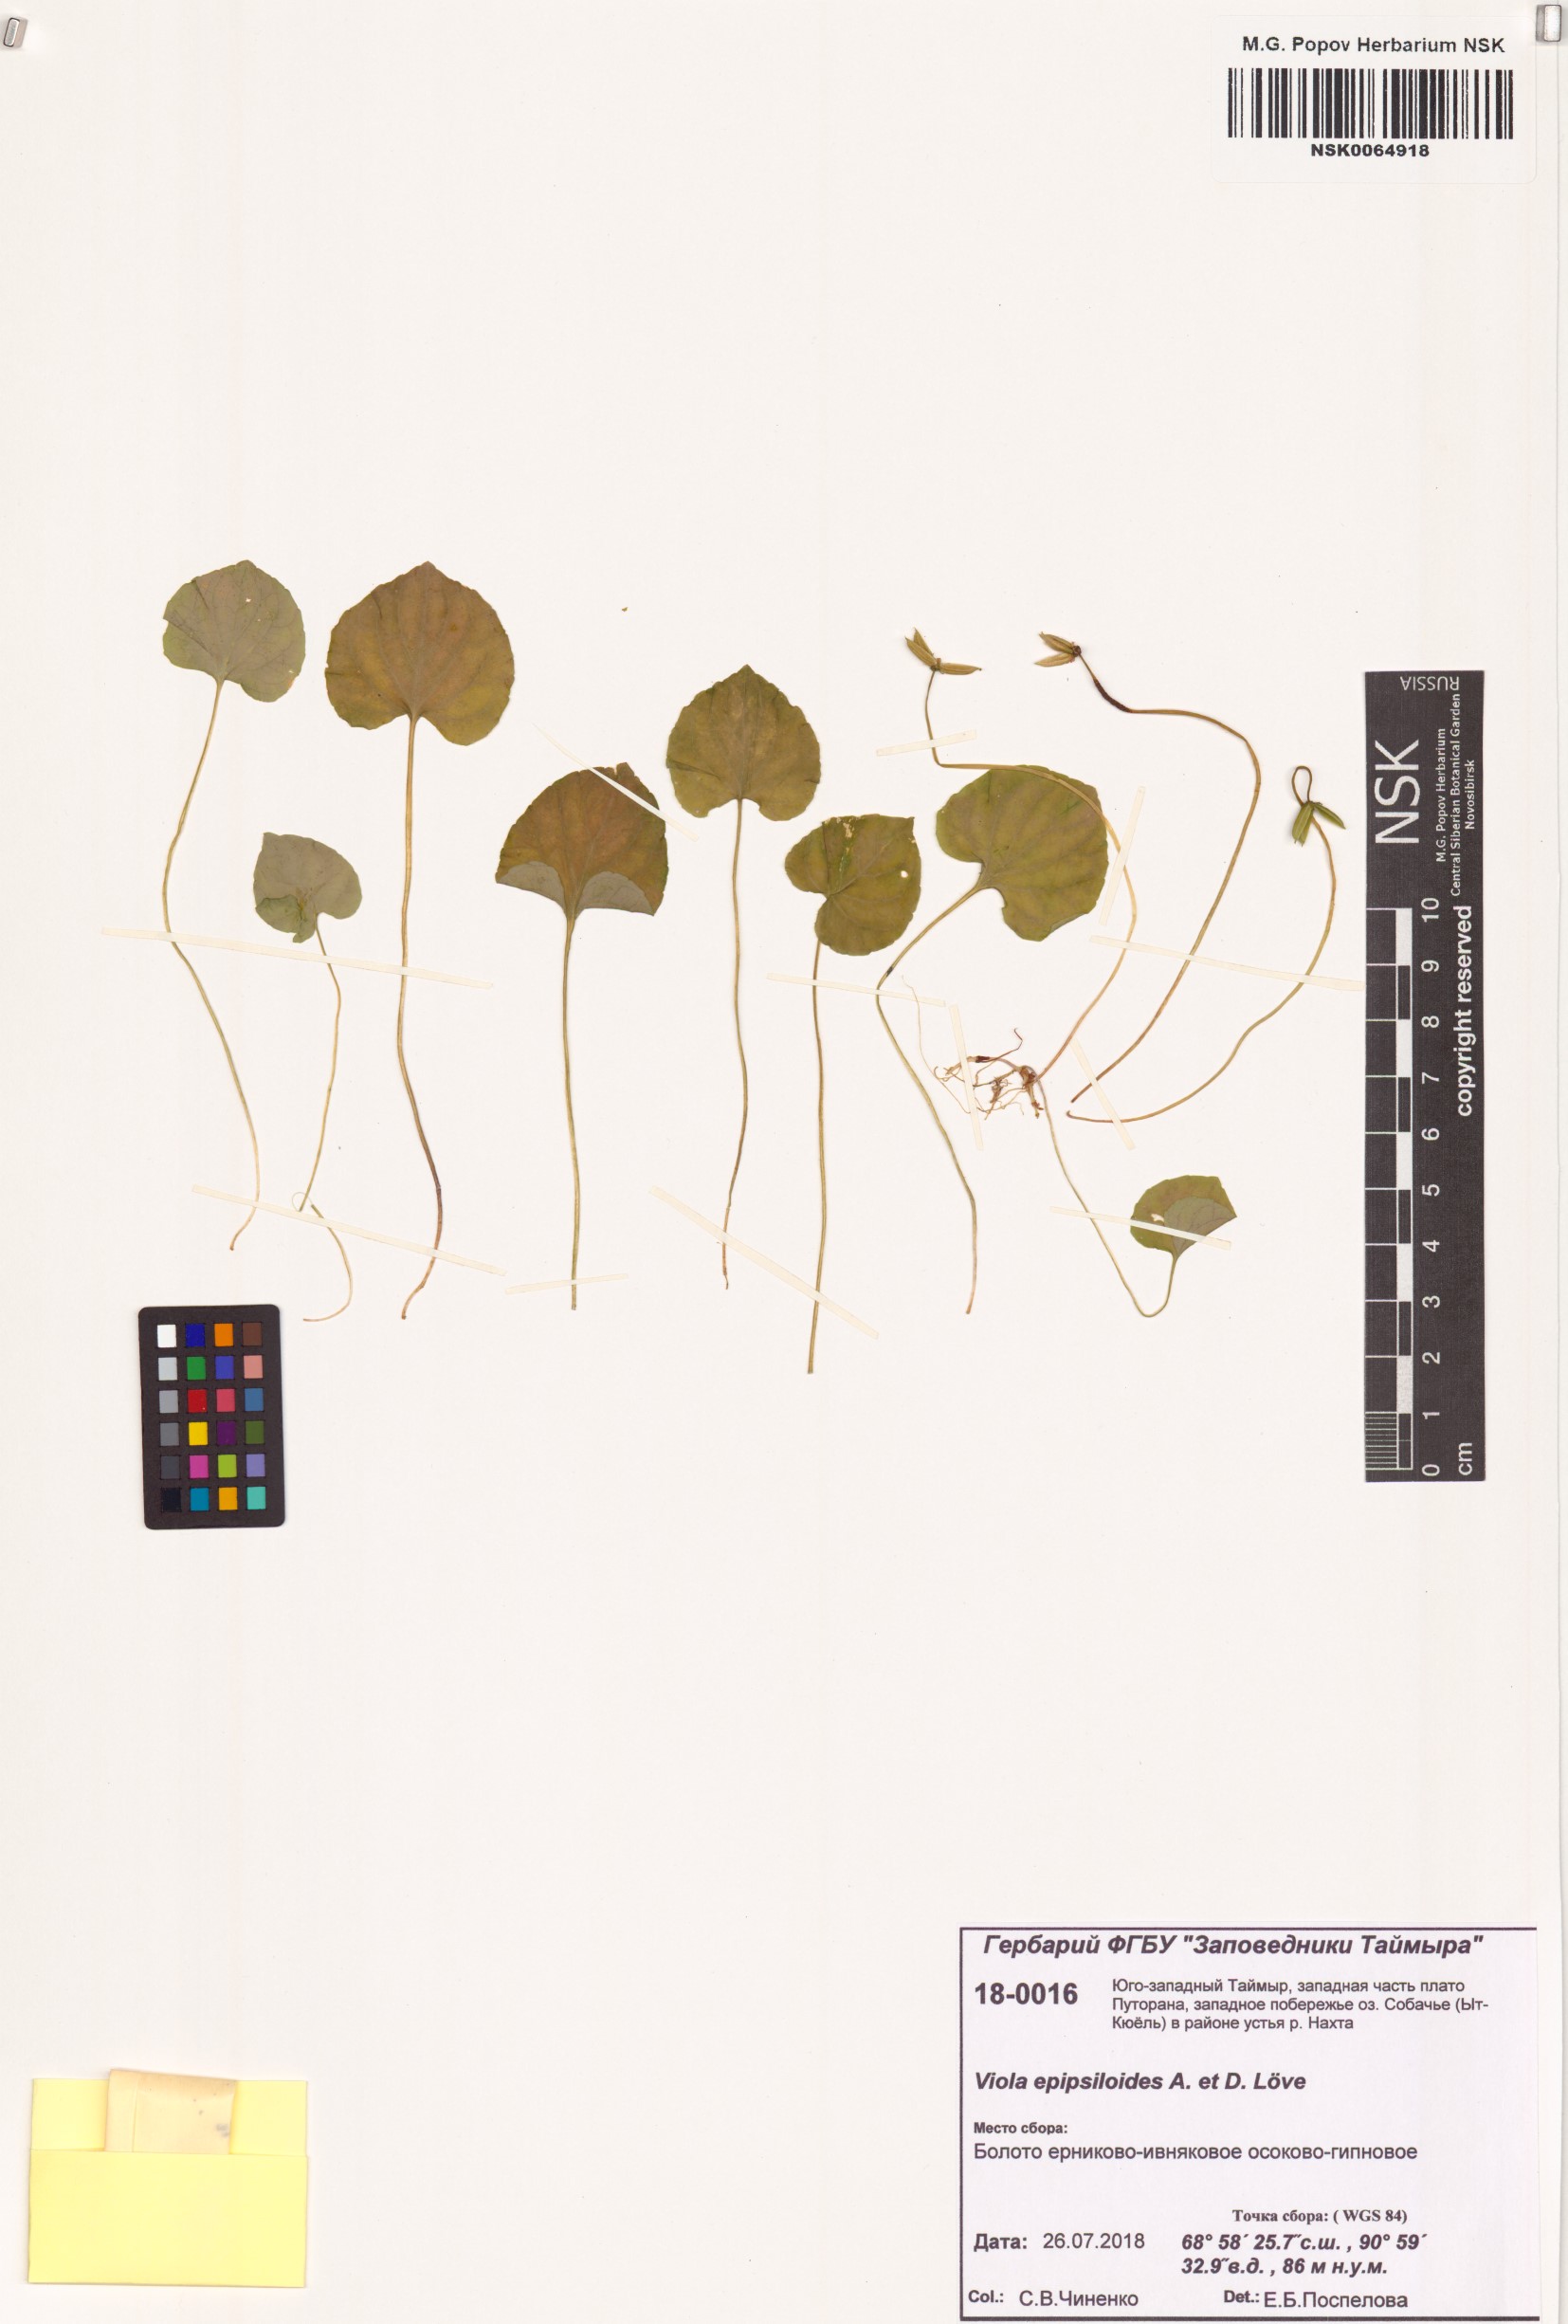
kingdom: Plantae
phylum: Tracheophyta
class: Magnoliopsida
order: Malpighiales
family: Violaceae
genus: Viola
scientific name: Viola epipsila
